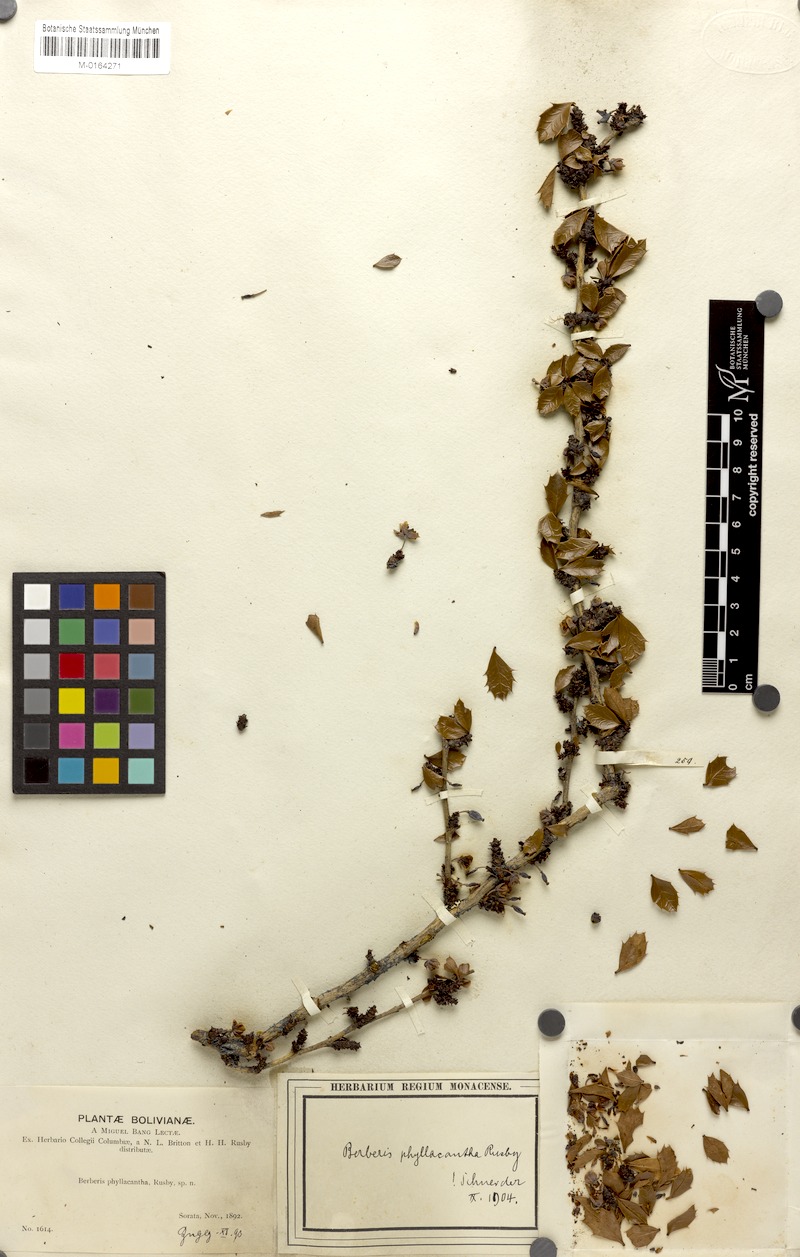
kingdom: Plantae
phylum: Tracheophyta
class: Magnoliopsida
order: Ranunculales
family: Berberidaceae
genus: Berberis
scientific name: Berberis phyllacantha
